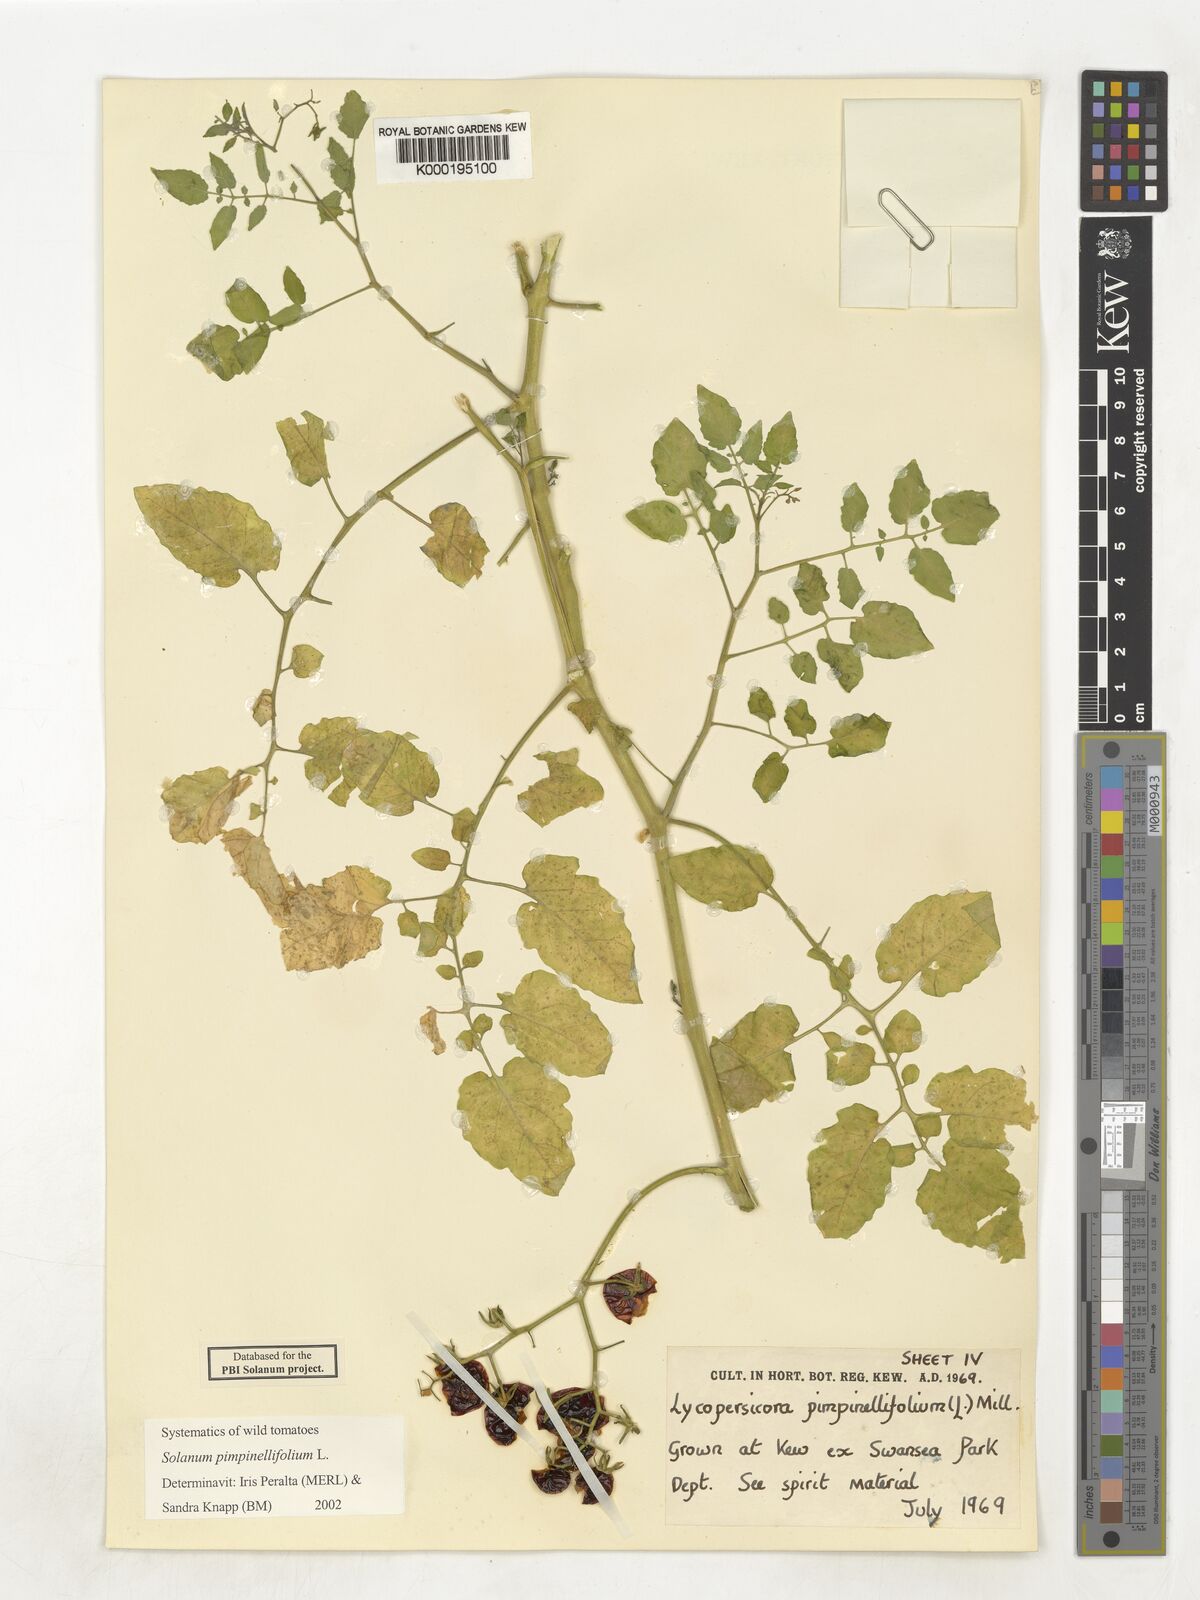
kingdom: Plantae
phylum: Tracheophyta
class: Magnoliopsida
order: Solanales
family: Solanaceae
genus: Solanum
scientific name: Solanum pimpinellifolium
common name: Currant-tomato
